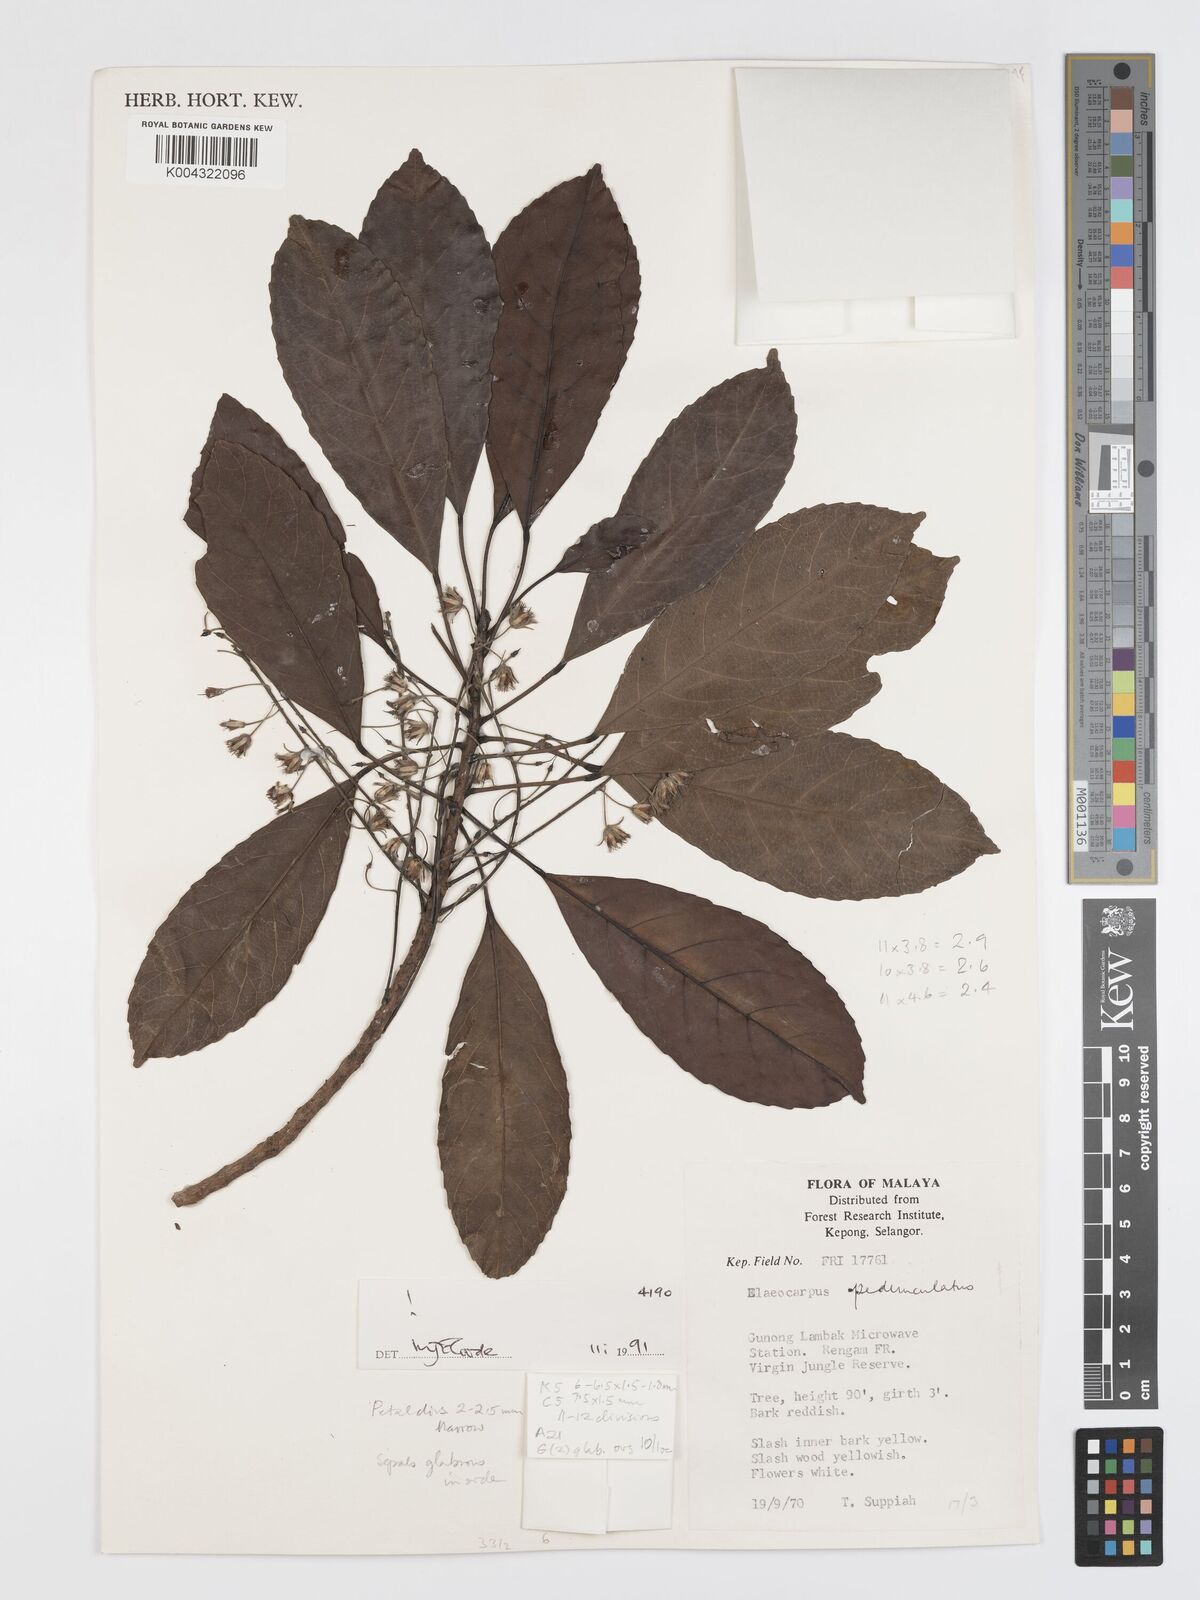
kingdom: Plantae
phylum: Tracheophyta
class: Magnoliopsida
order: Oxalidales
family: Elaeocarpaceae
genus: Elaeocarpus
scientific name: Elaeocarpus pedunculatus
